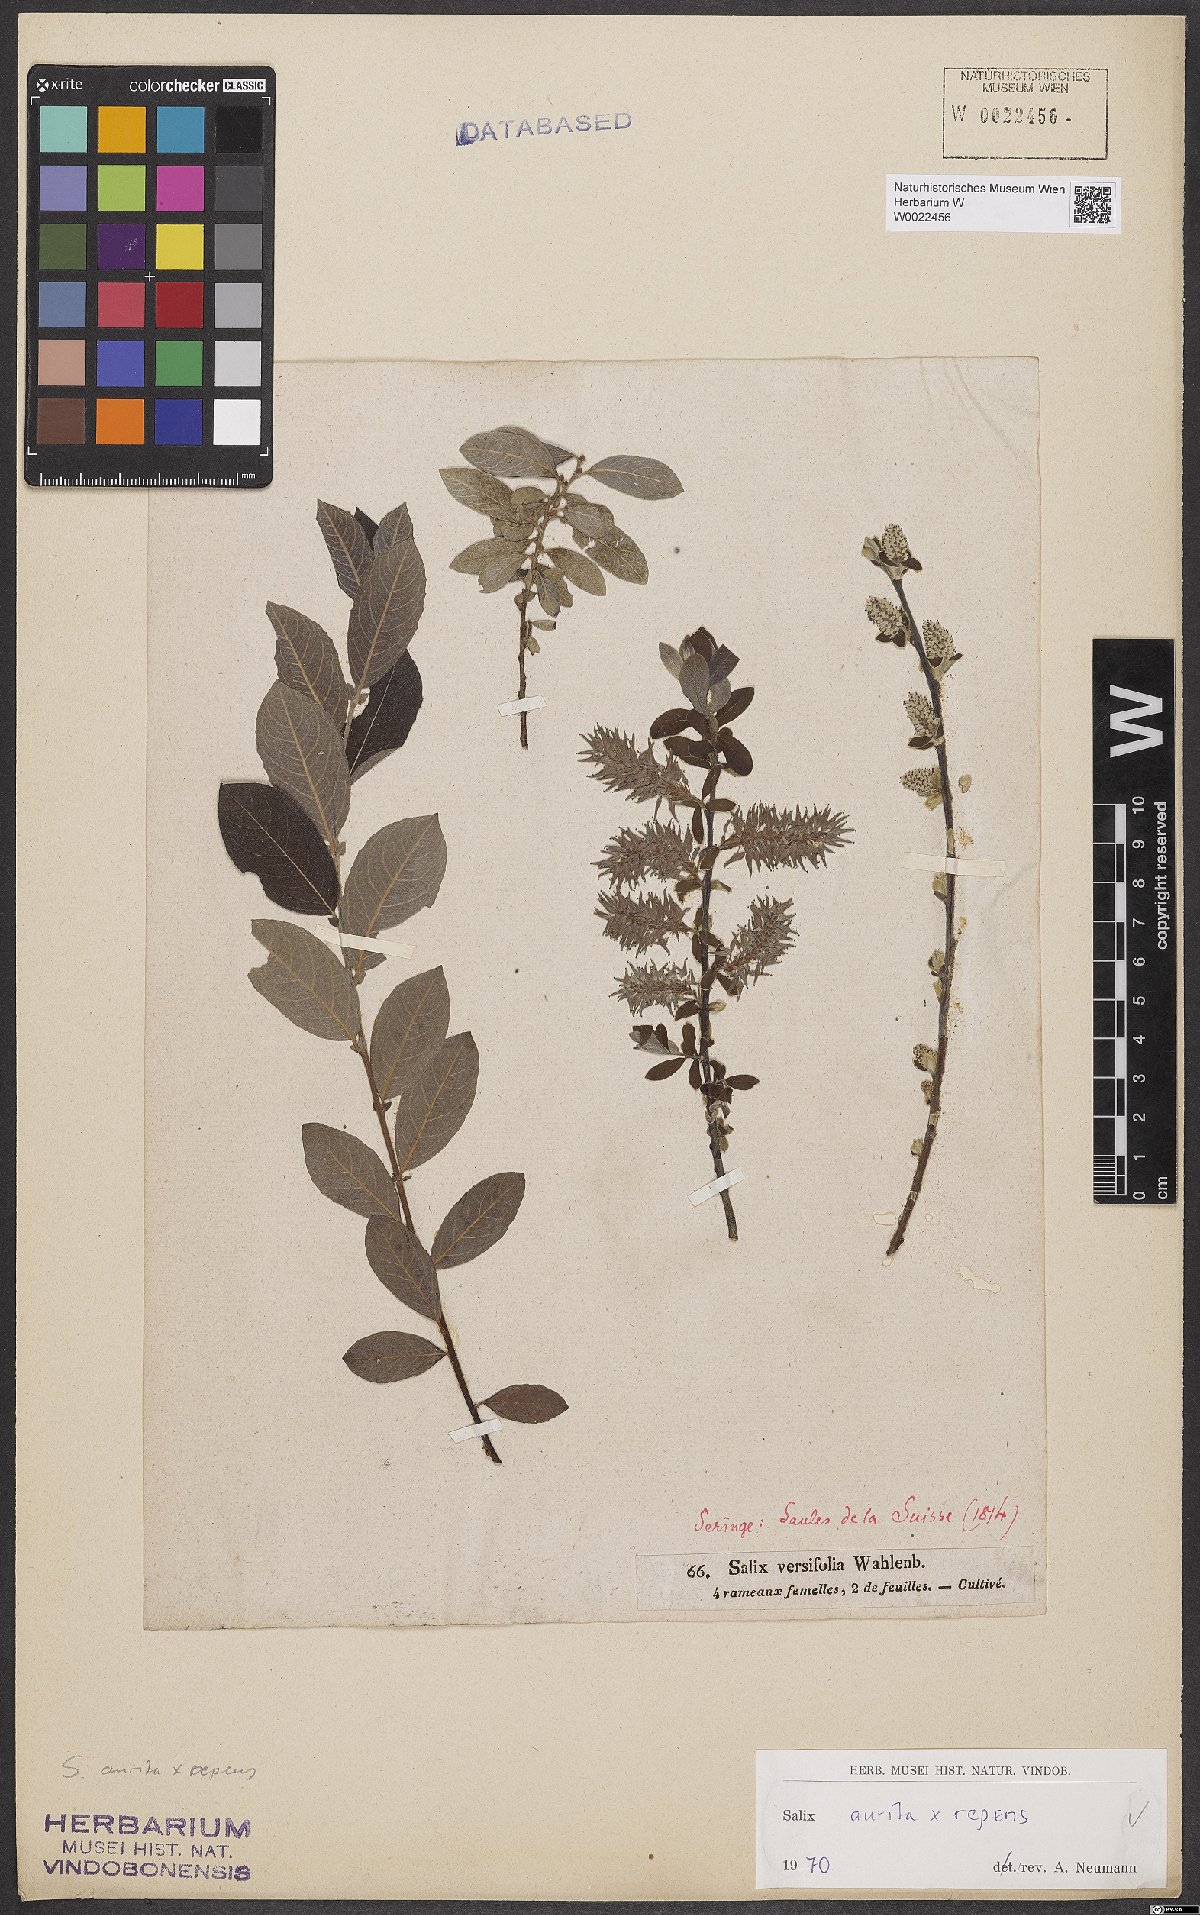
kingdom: Plantae
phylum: Tracheophyta
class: Magnoliopsida
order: Malpighiales
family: Salicaceae
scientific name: Salicaceae
